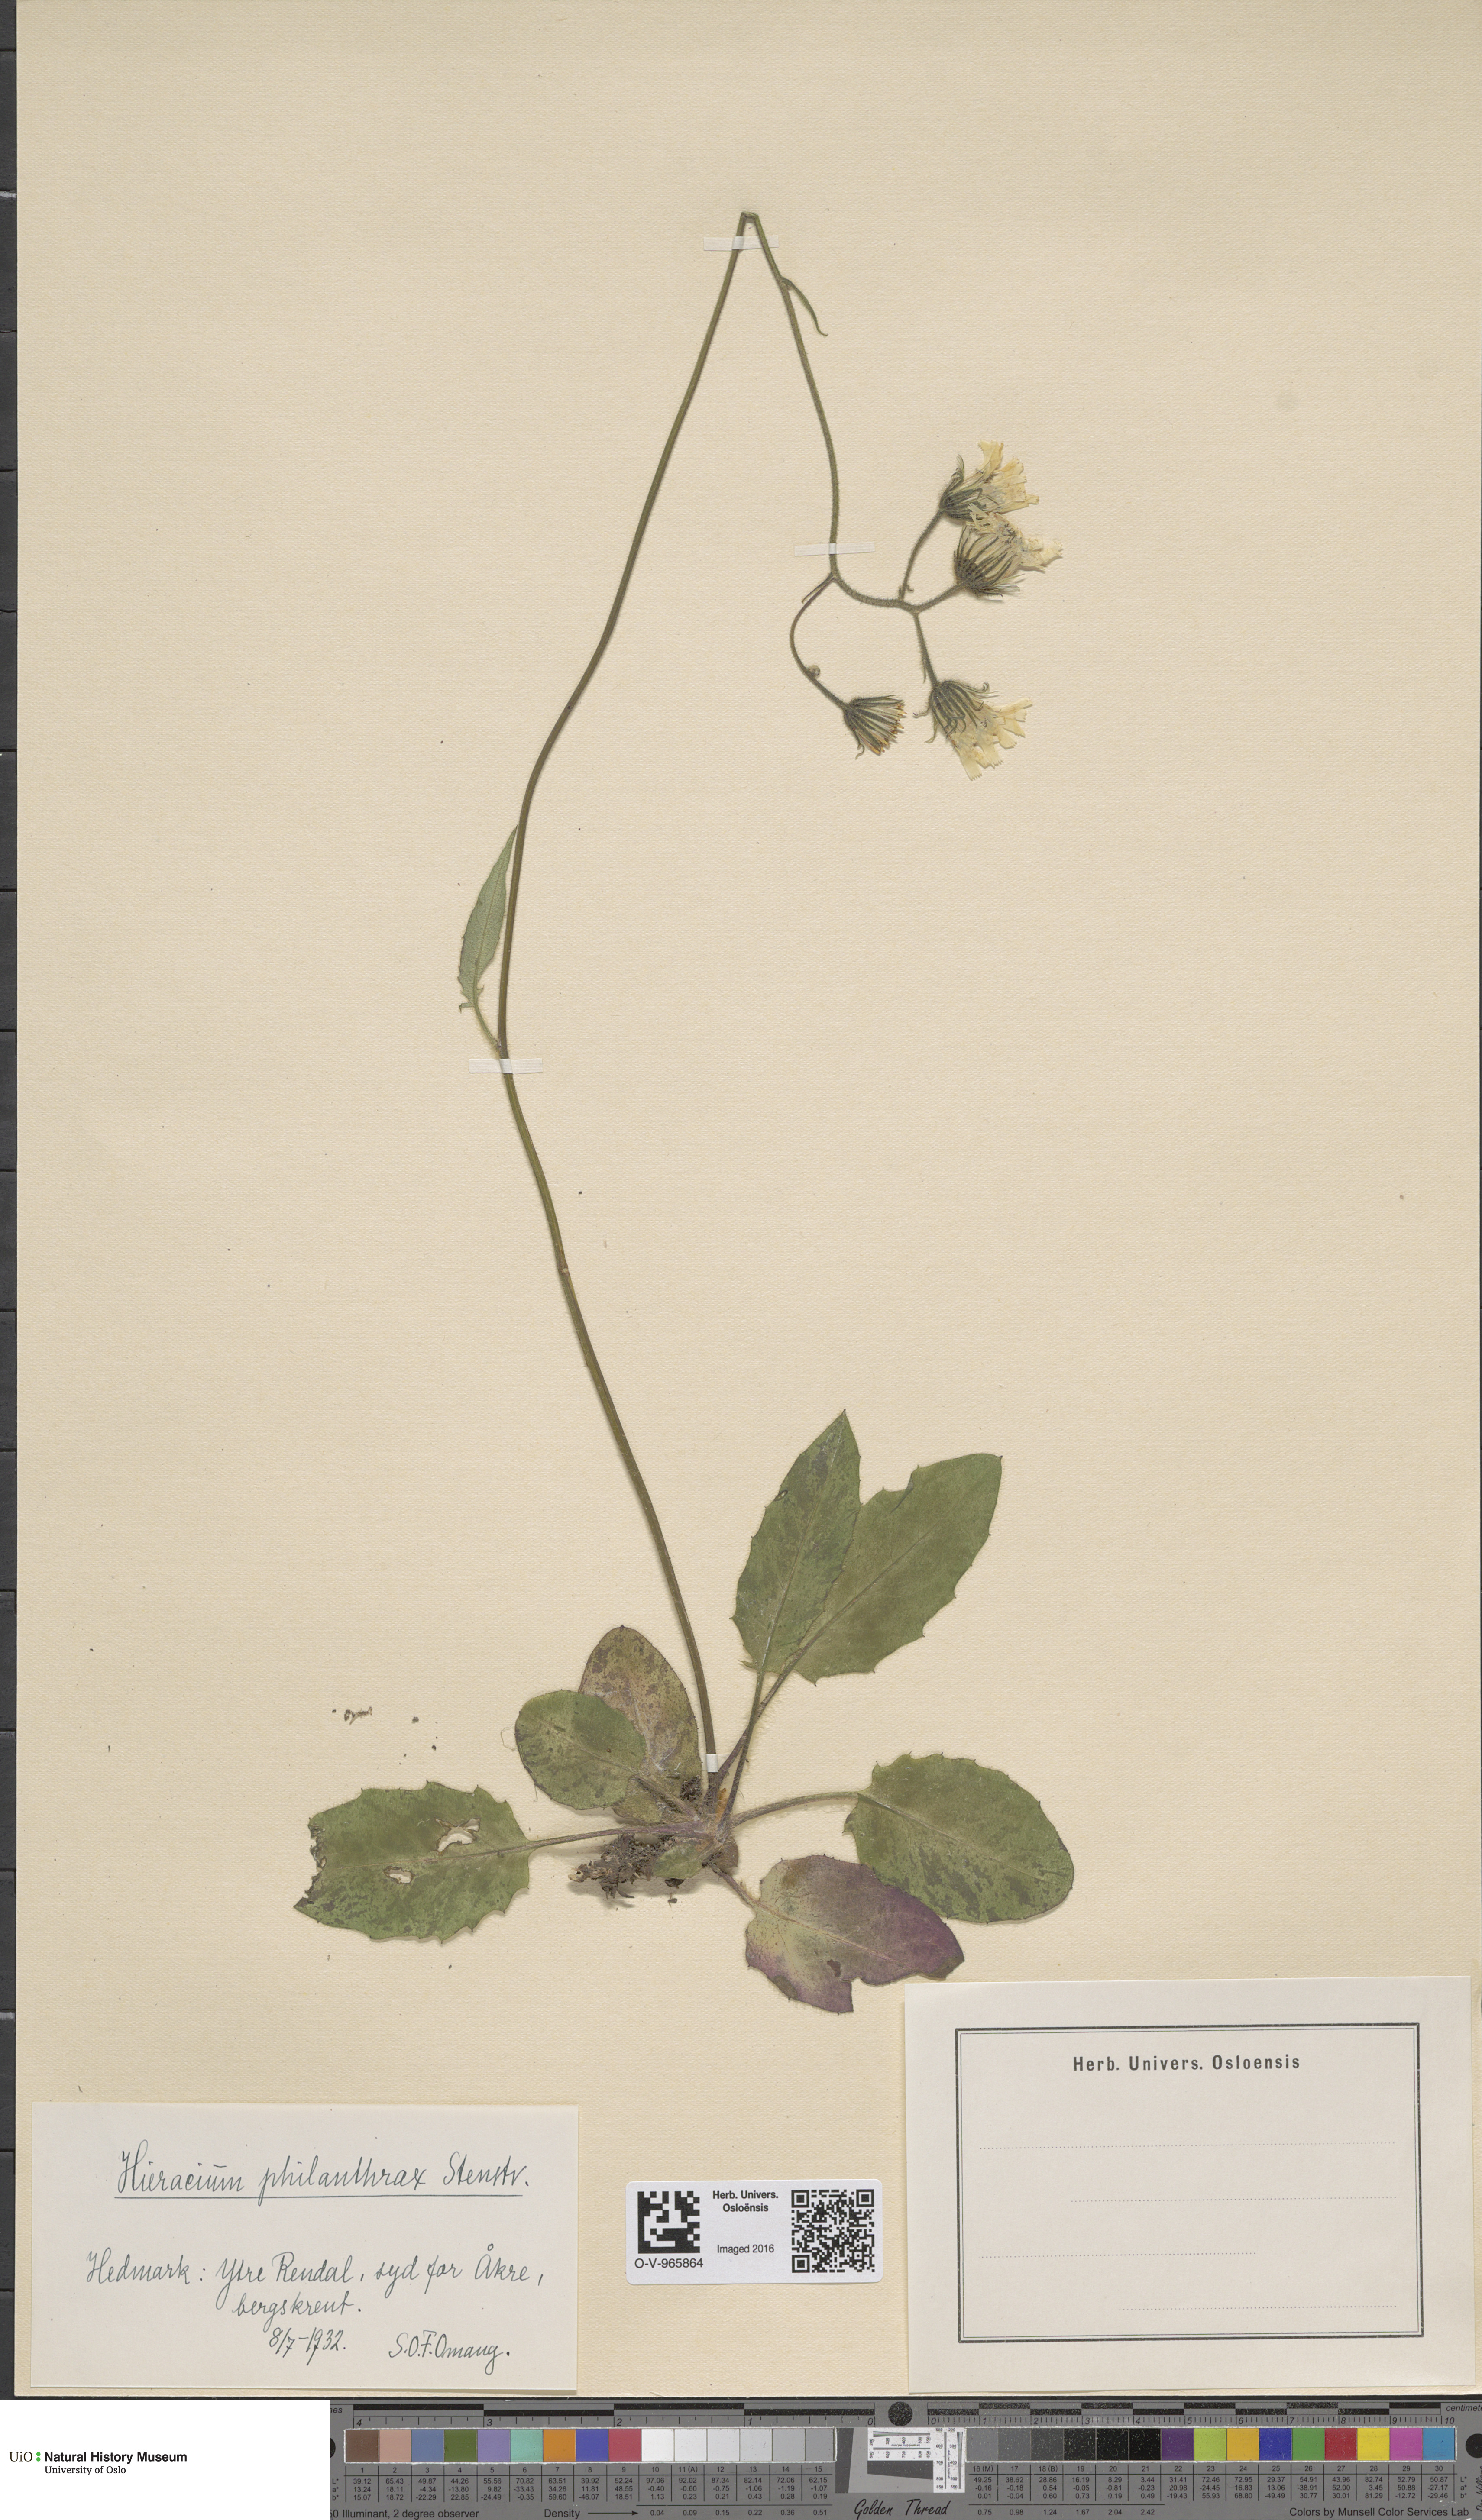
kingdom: Plantae
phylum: Tracheophyta
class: Magnoliopsida
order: Asterales
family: Asteraceae
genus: Hieracium
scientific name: Hieracium philanthrax
